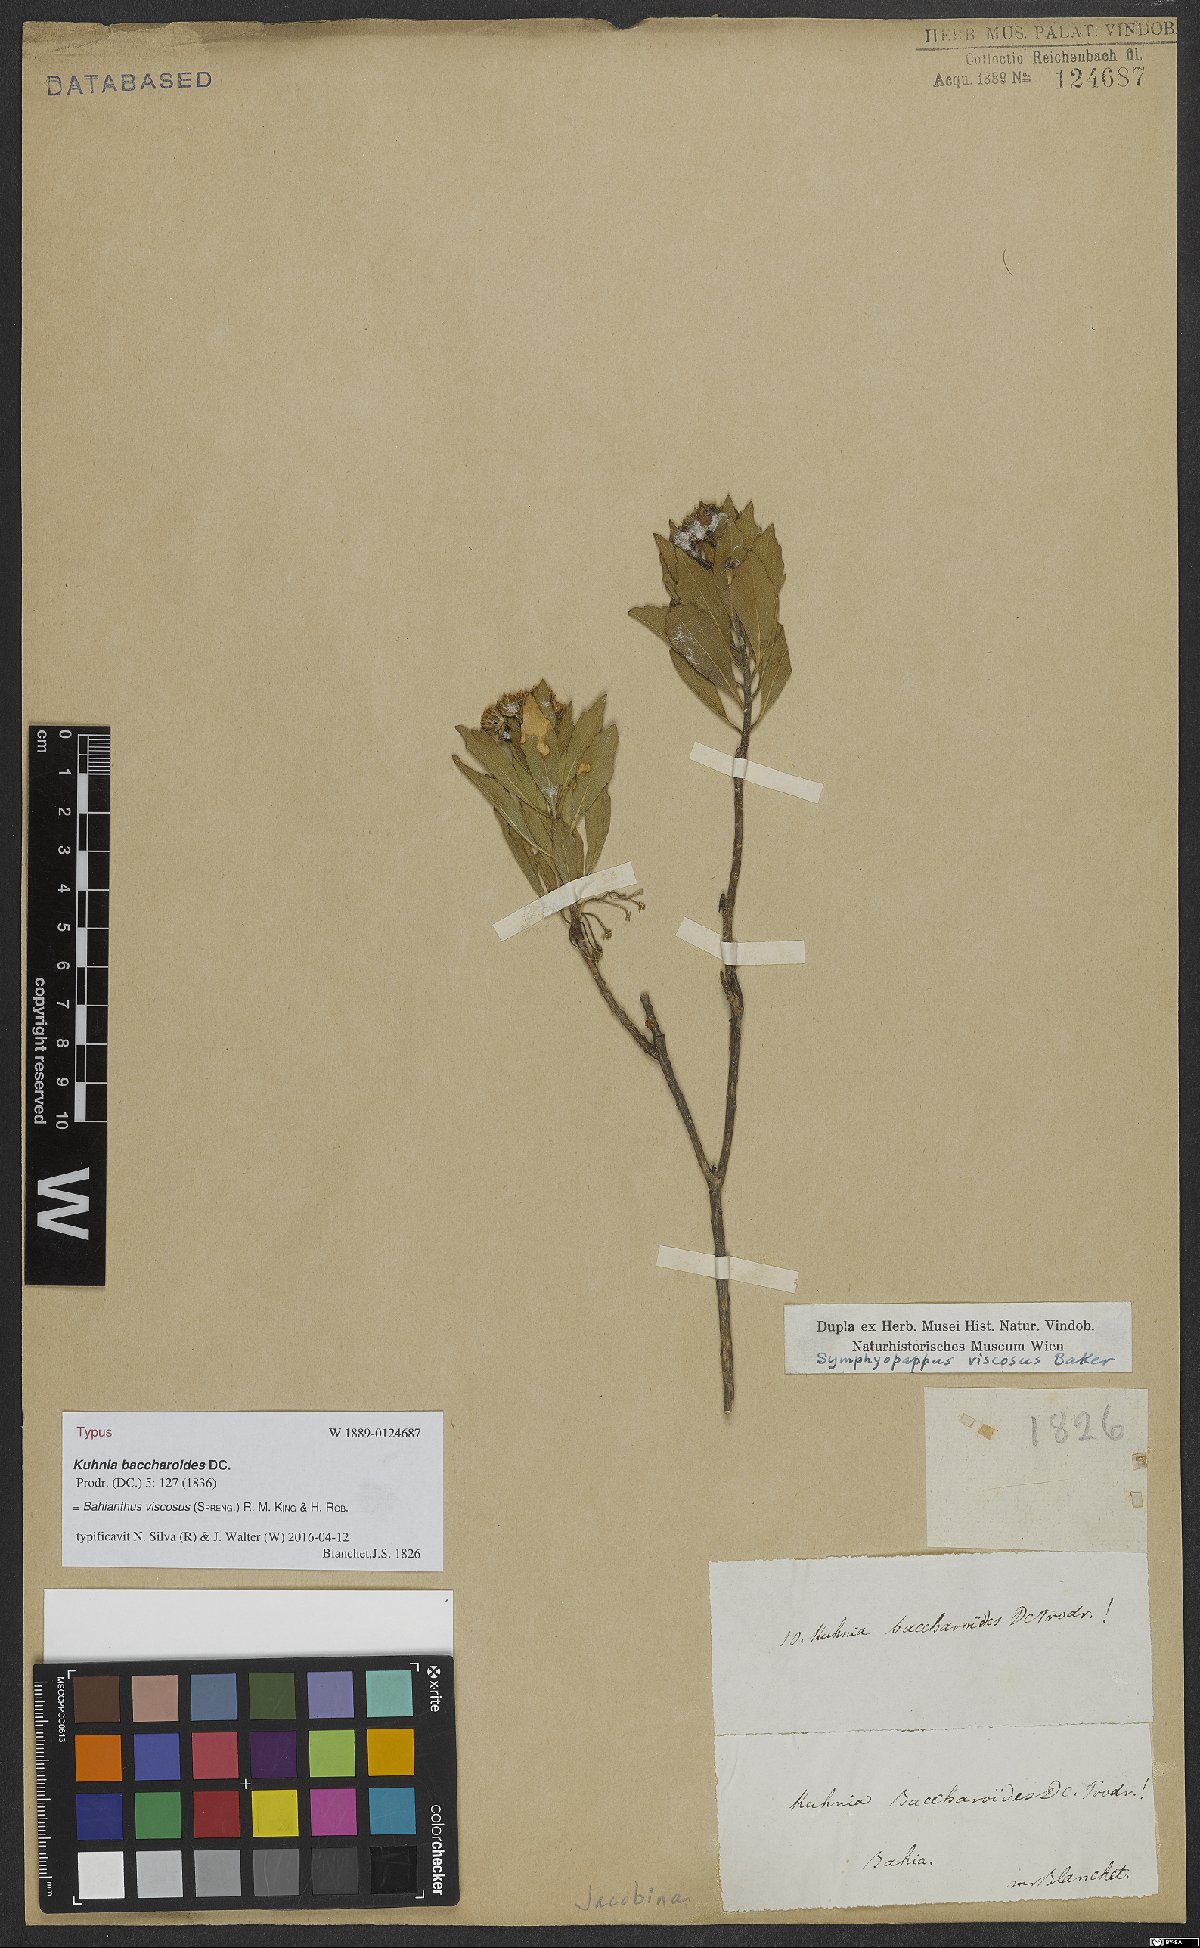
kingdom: Plantae
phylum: Tracheophyta
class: Magnoliopsida
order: Asterales
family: Asteraceae
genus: Bahianthus
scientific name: Bahianthus viscosus
